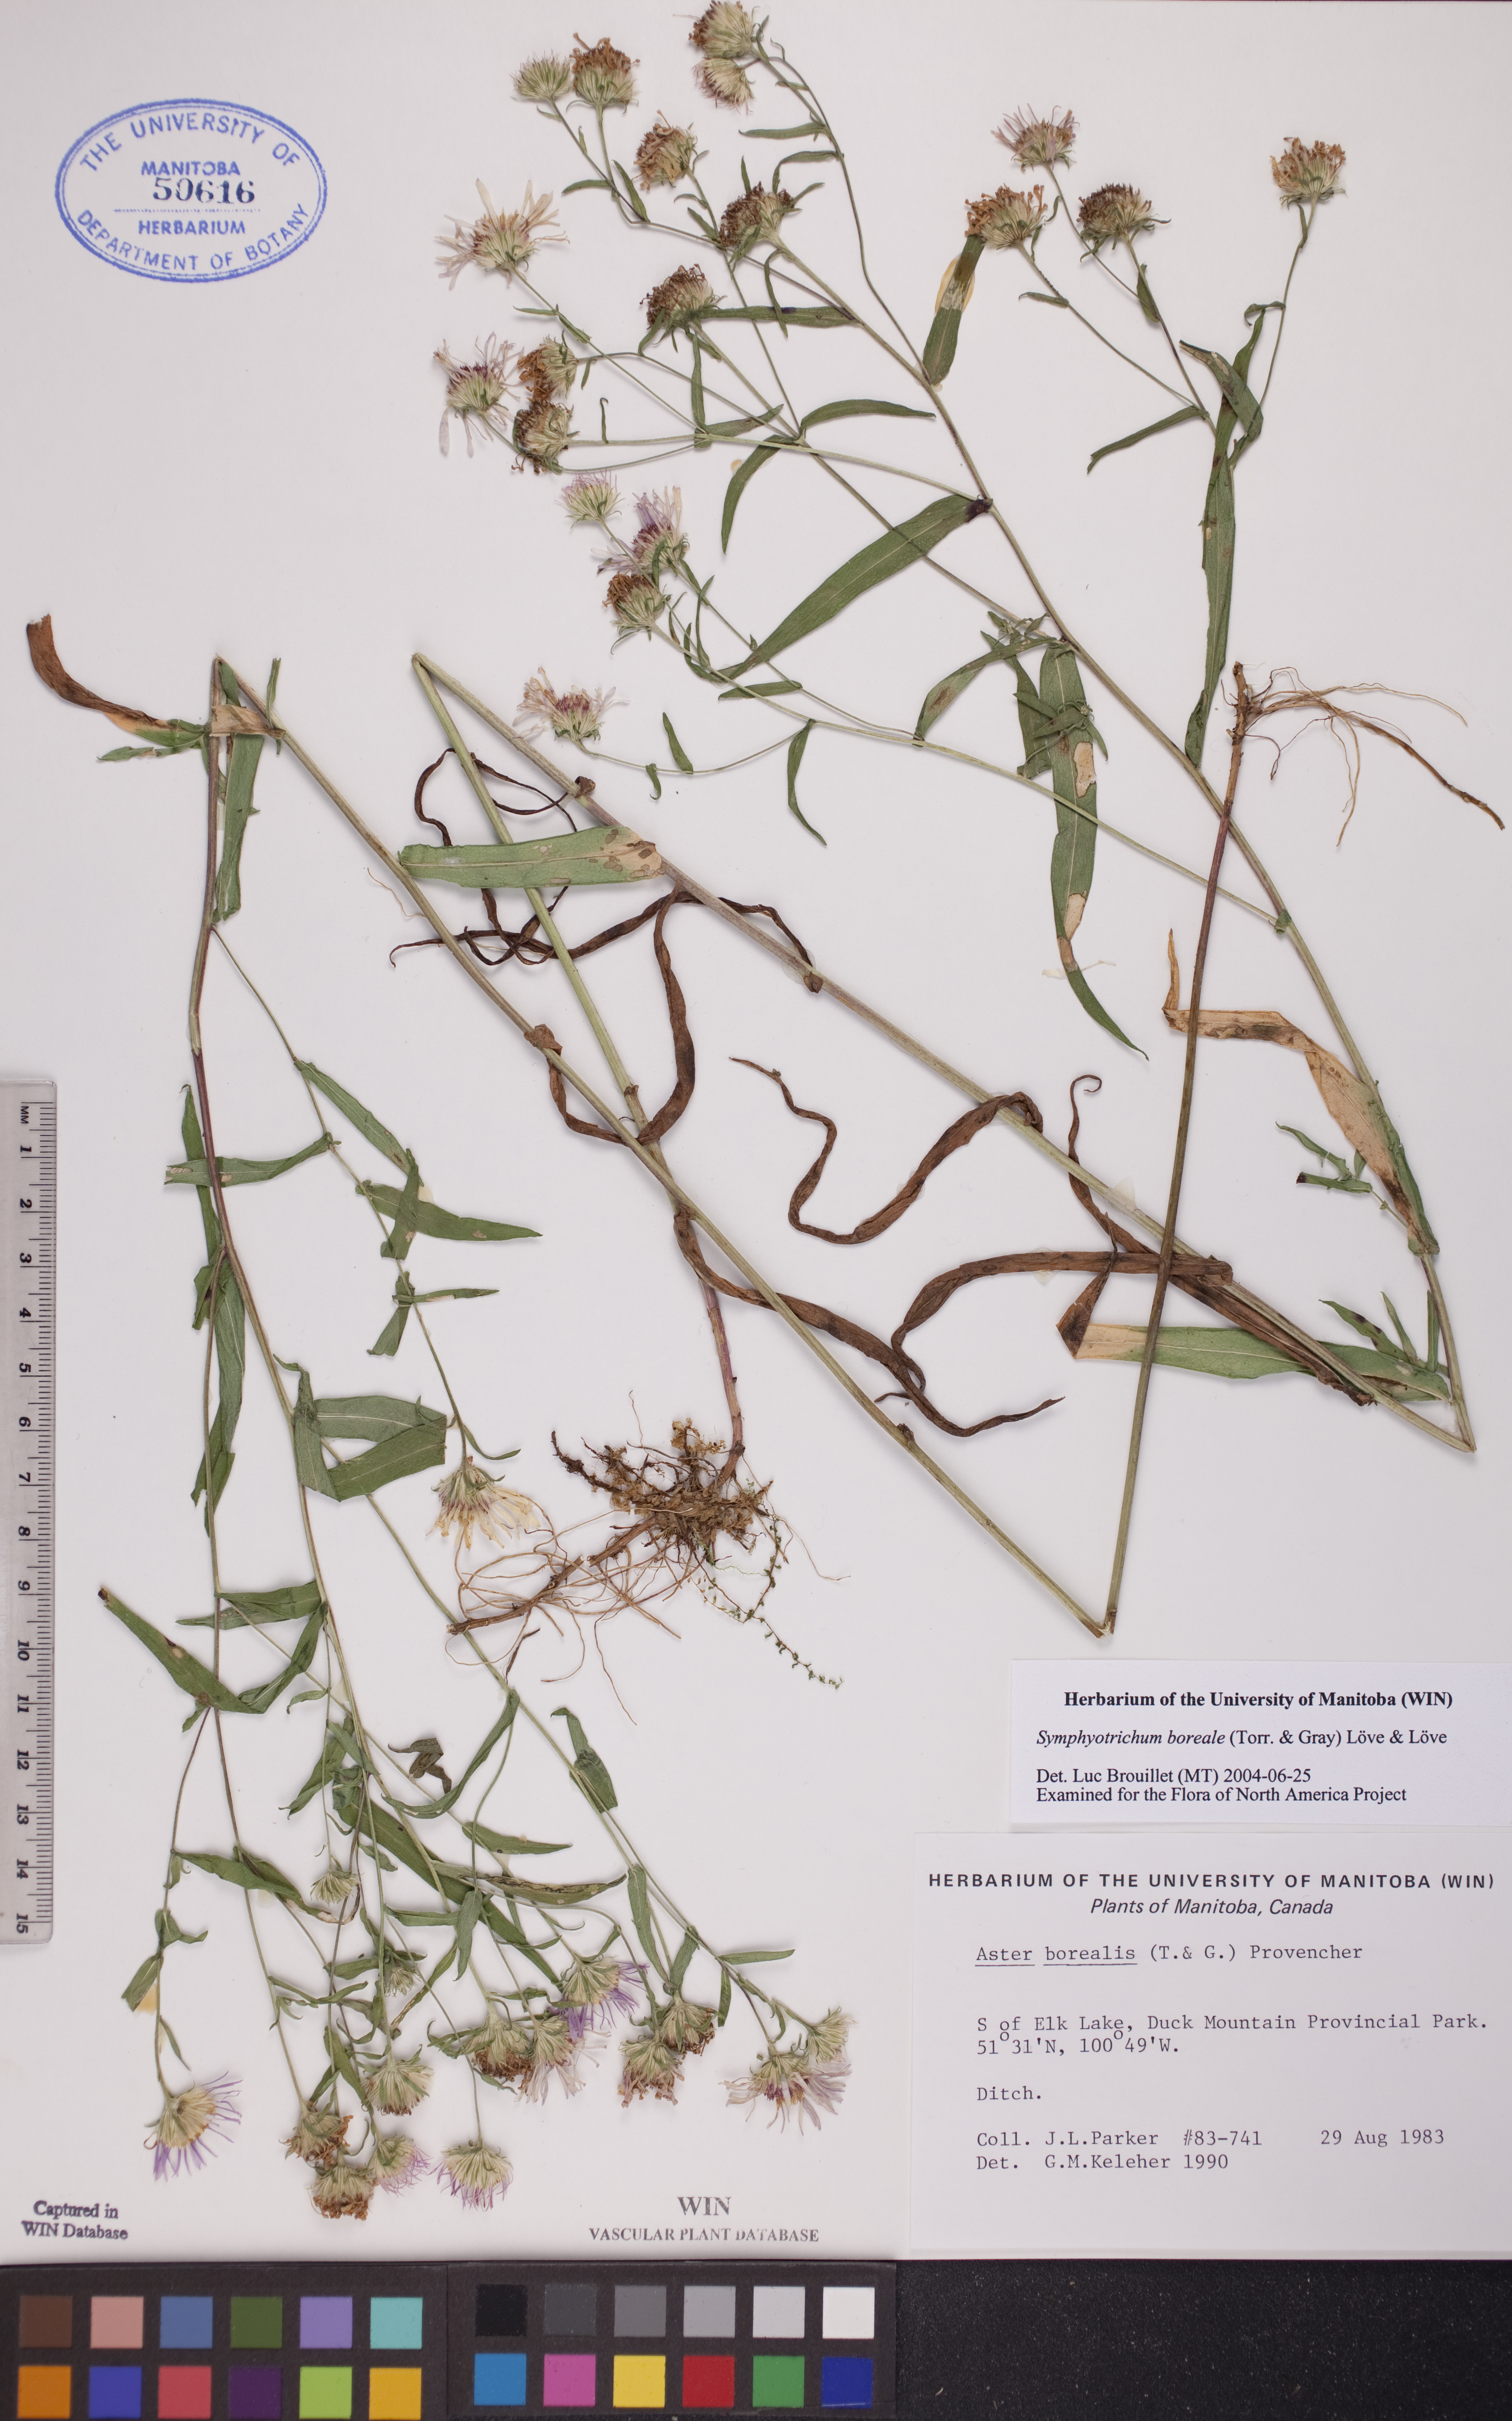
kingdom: Plantae
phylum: Tracheophyta
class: Magnoliopsida
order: Asterales
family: Asteraceae
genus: Symphyotrichum
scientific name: Symphyotrichum boreale
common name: Northern bog aster
